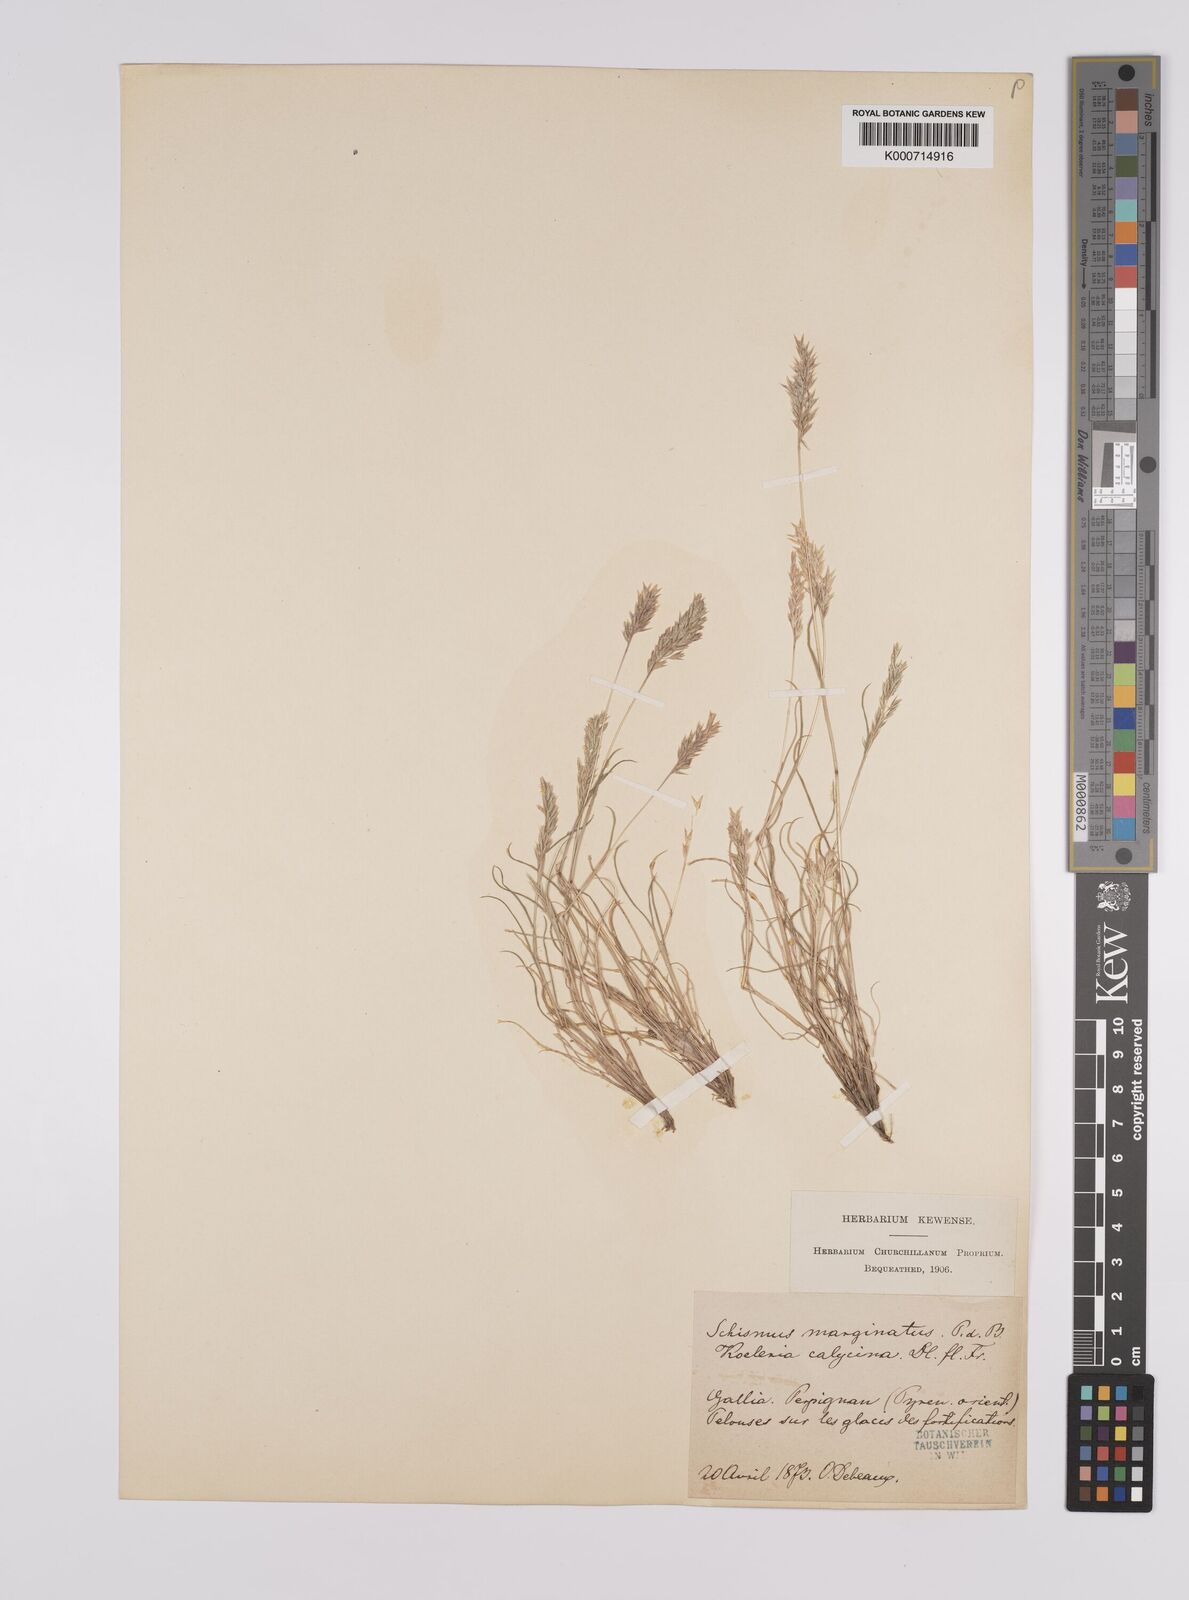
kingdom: Plantae
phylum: Tracheophyta
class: Liliopsida
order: Poales
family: Poaceae
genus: Schismus
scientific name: Schismus barbatus
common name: Kelch-grass
